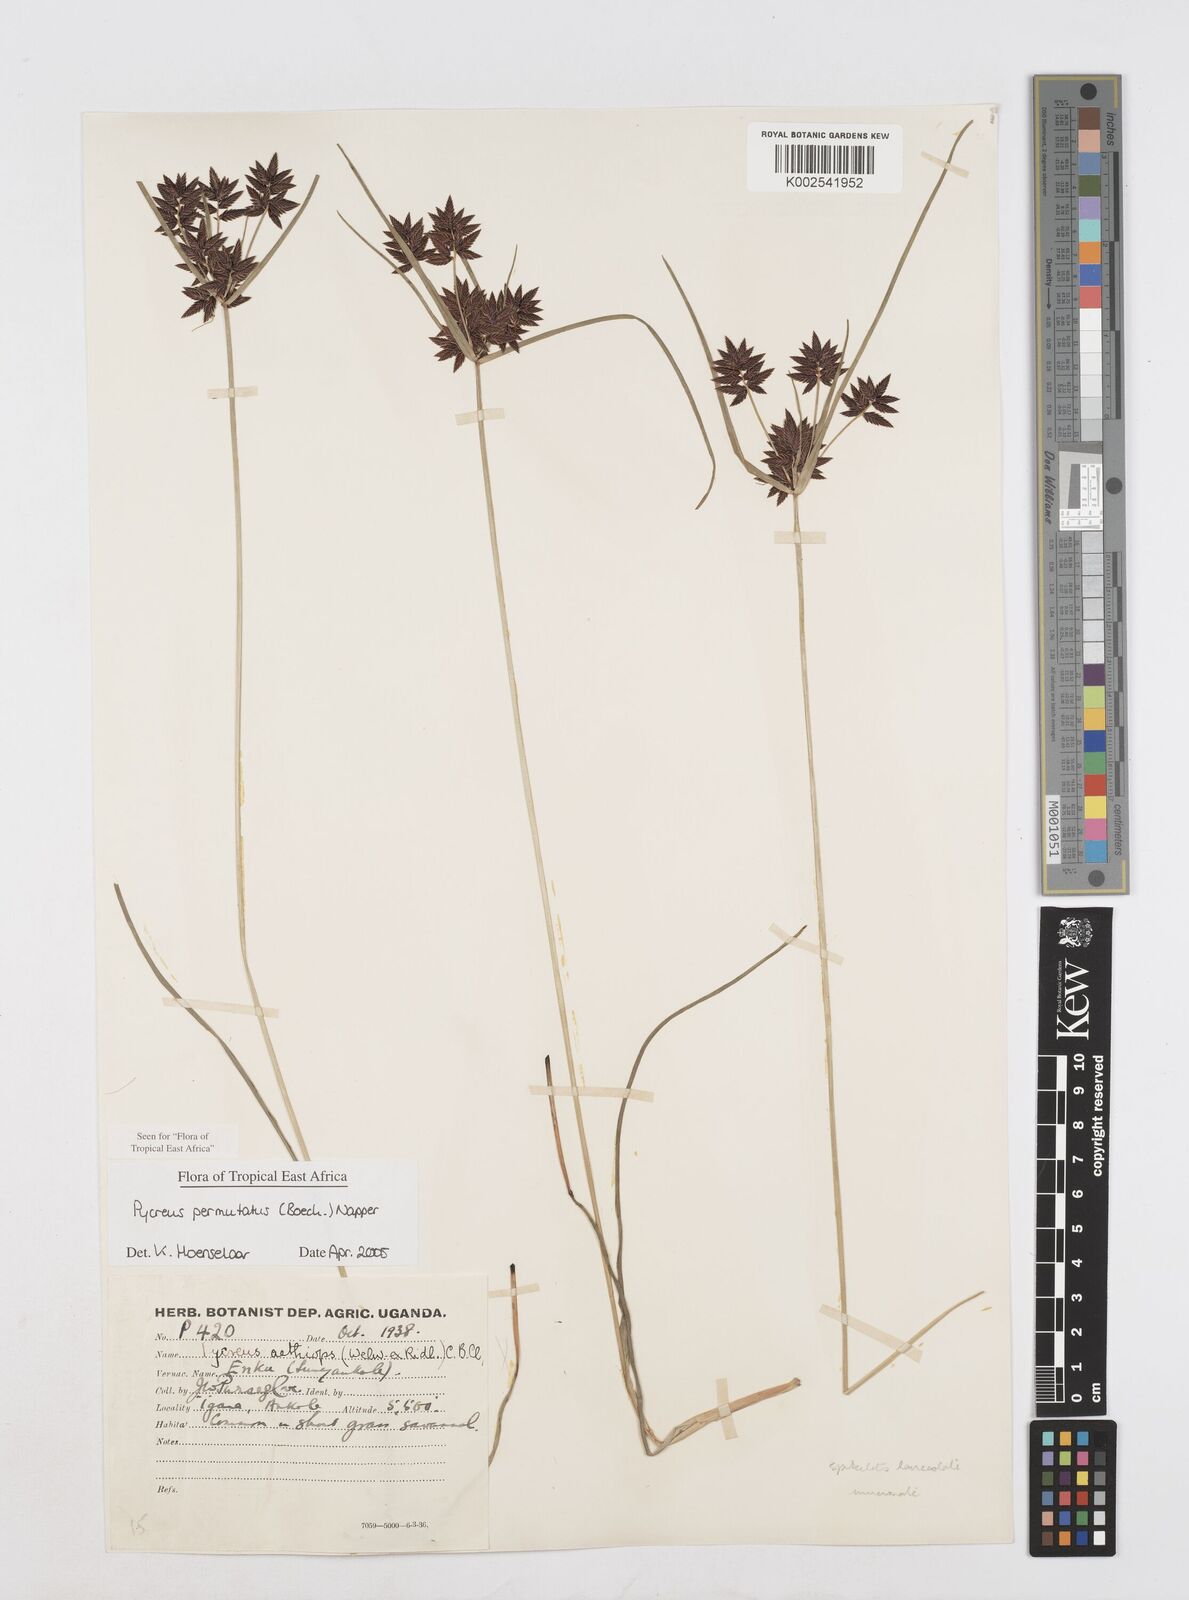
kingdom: Plantae
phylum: Tracheophyta
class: Liliopsida
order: Poales
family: Cyperaceae
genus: Cyperus
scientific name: Cyperus nigricans
